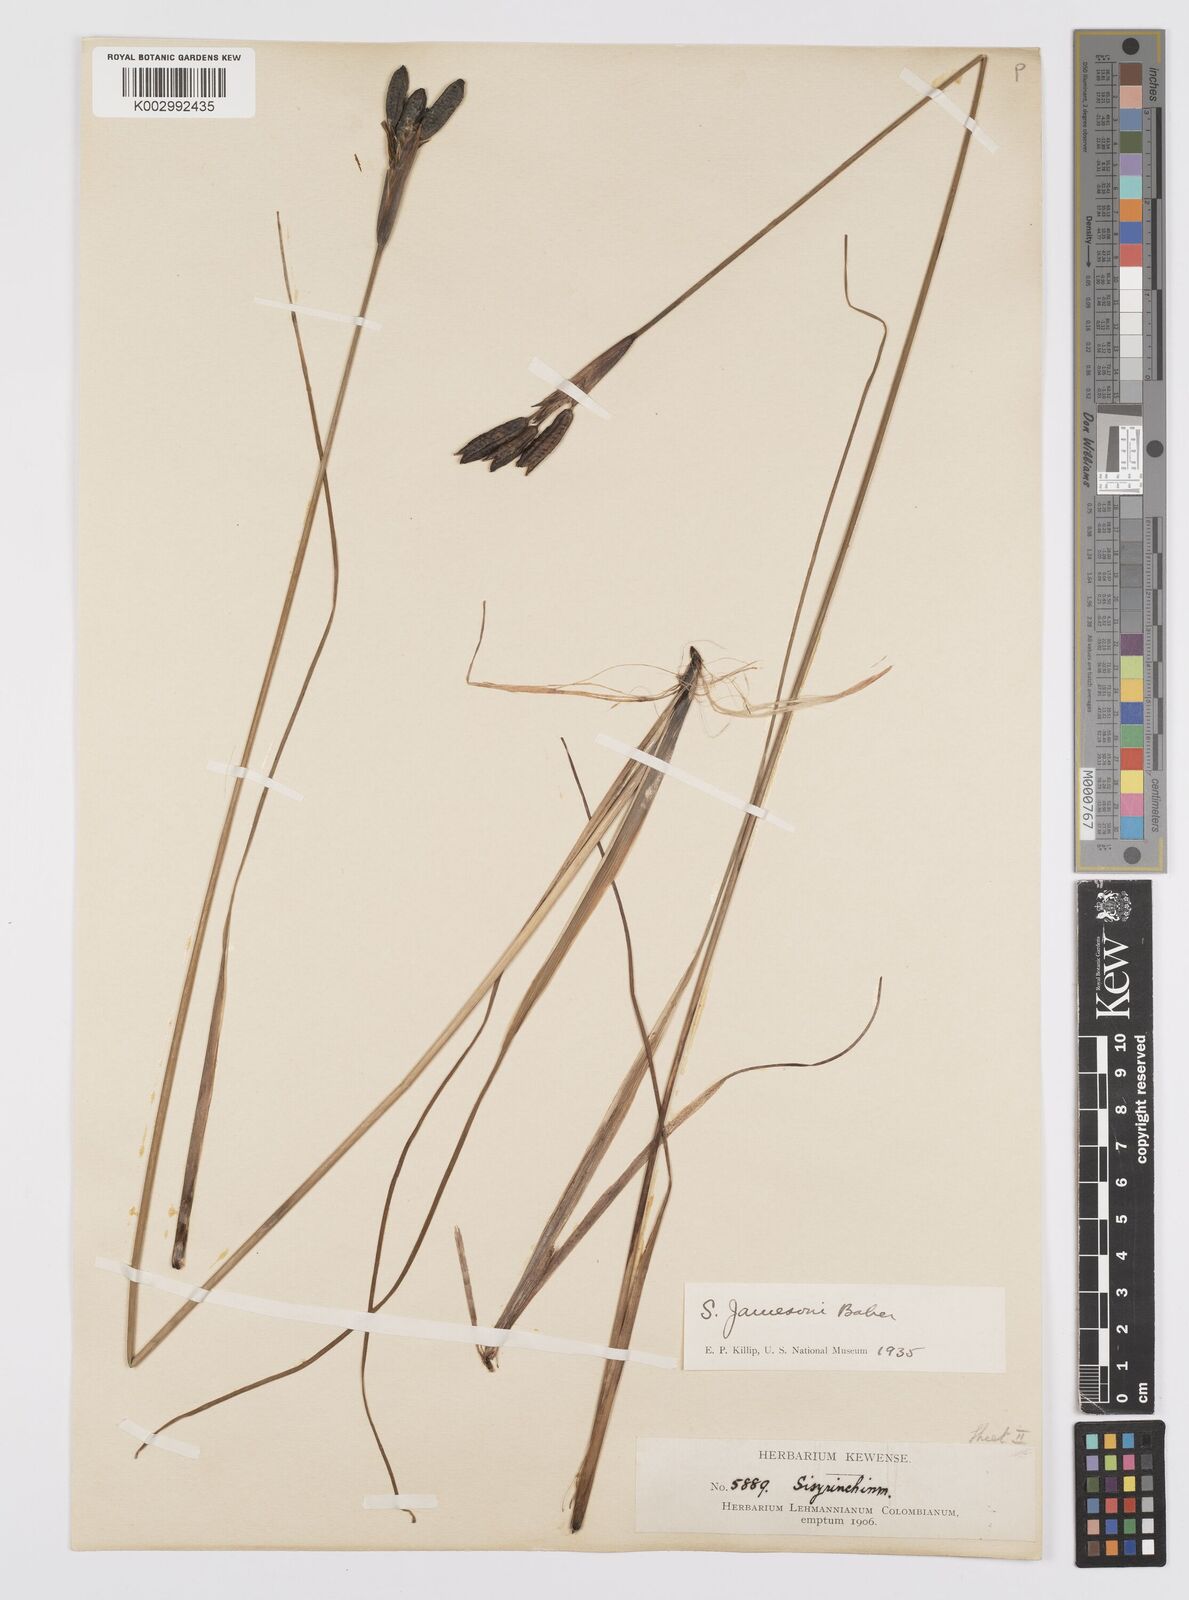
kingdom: Plantae
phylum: Tracheophyta
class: Liliopsida
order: Asparagales
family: Iridaceae
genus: Sisyrinchium
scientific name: Sisyrinchium jamesonii
